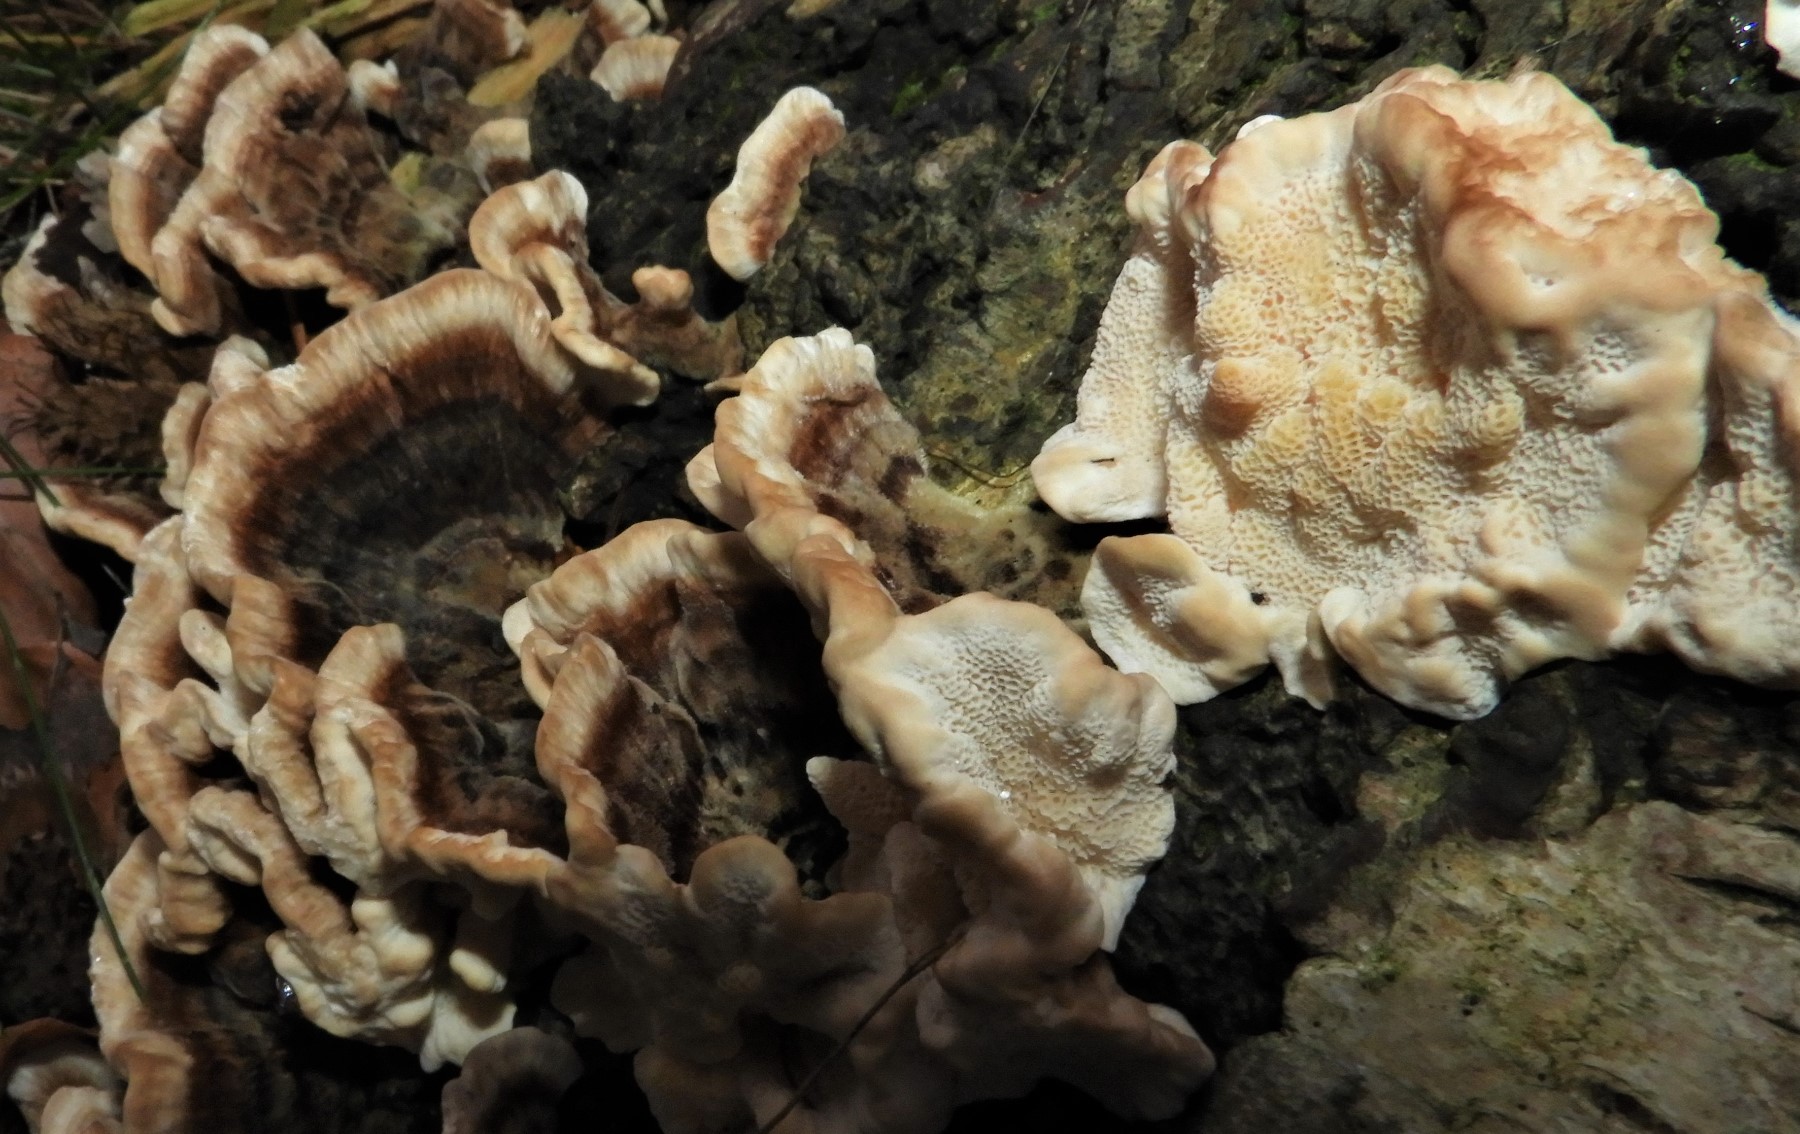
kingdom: Fungi
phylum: Basidiomycota
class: Agaricomycetes
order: Polyporales
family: Polyporaceae
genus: Trametes
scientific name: Trametes versicolor
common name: broget læderporesvamp
